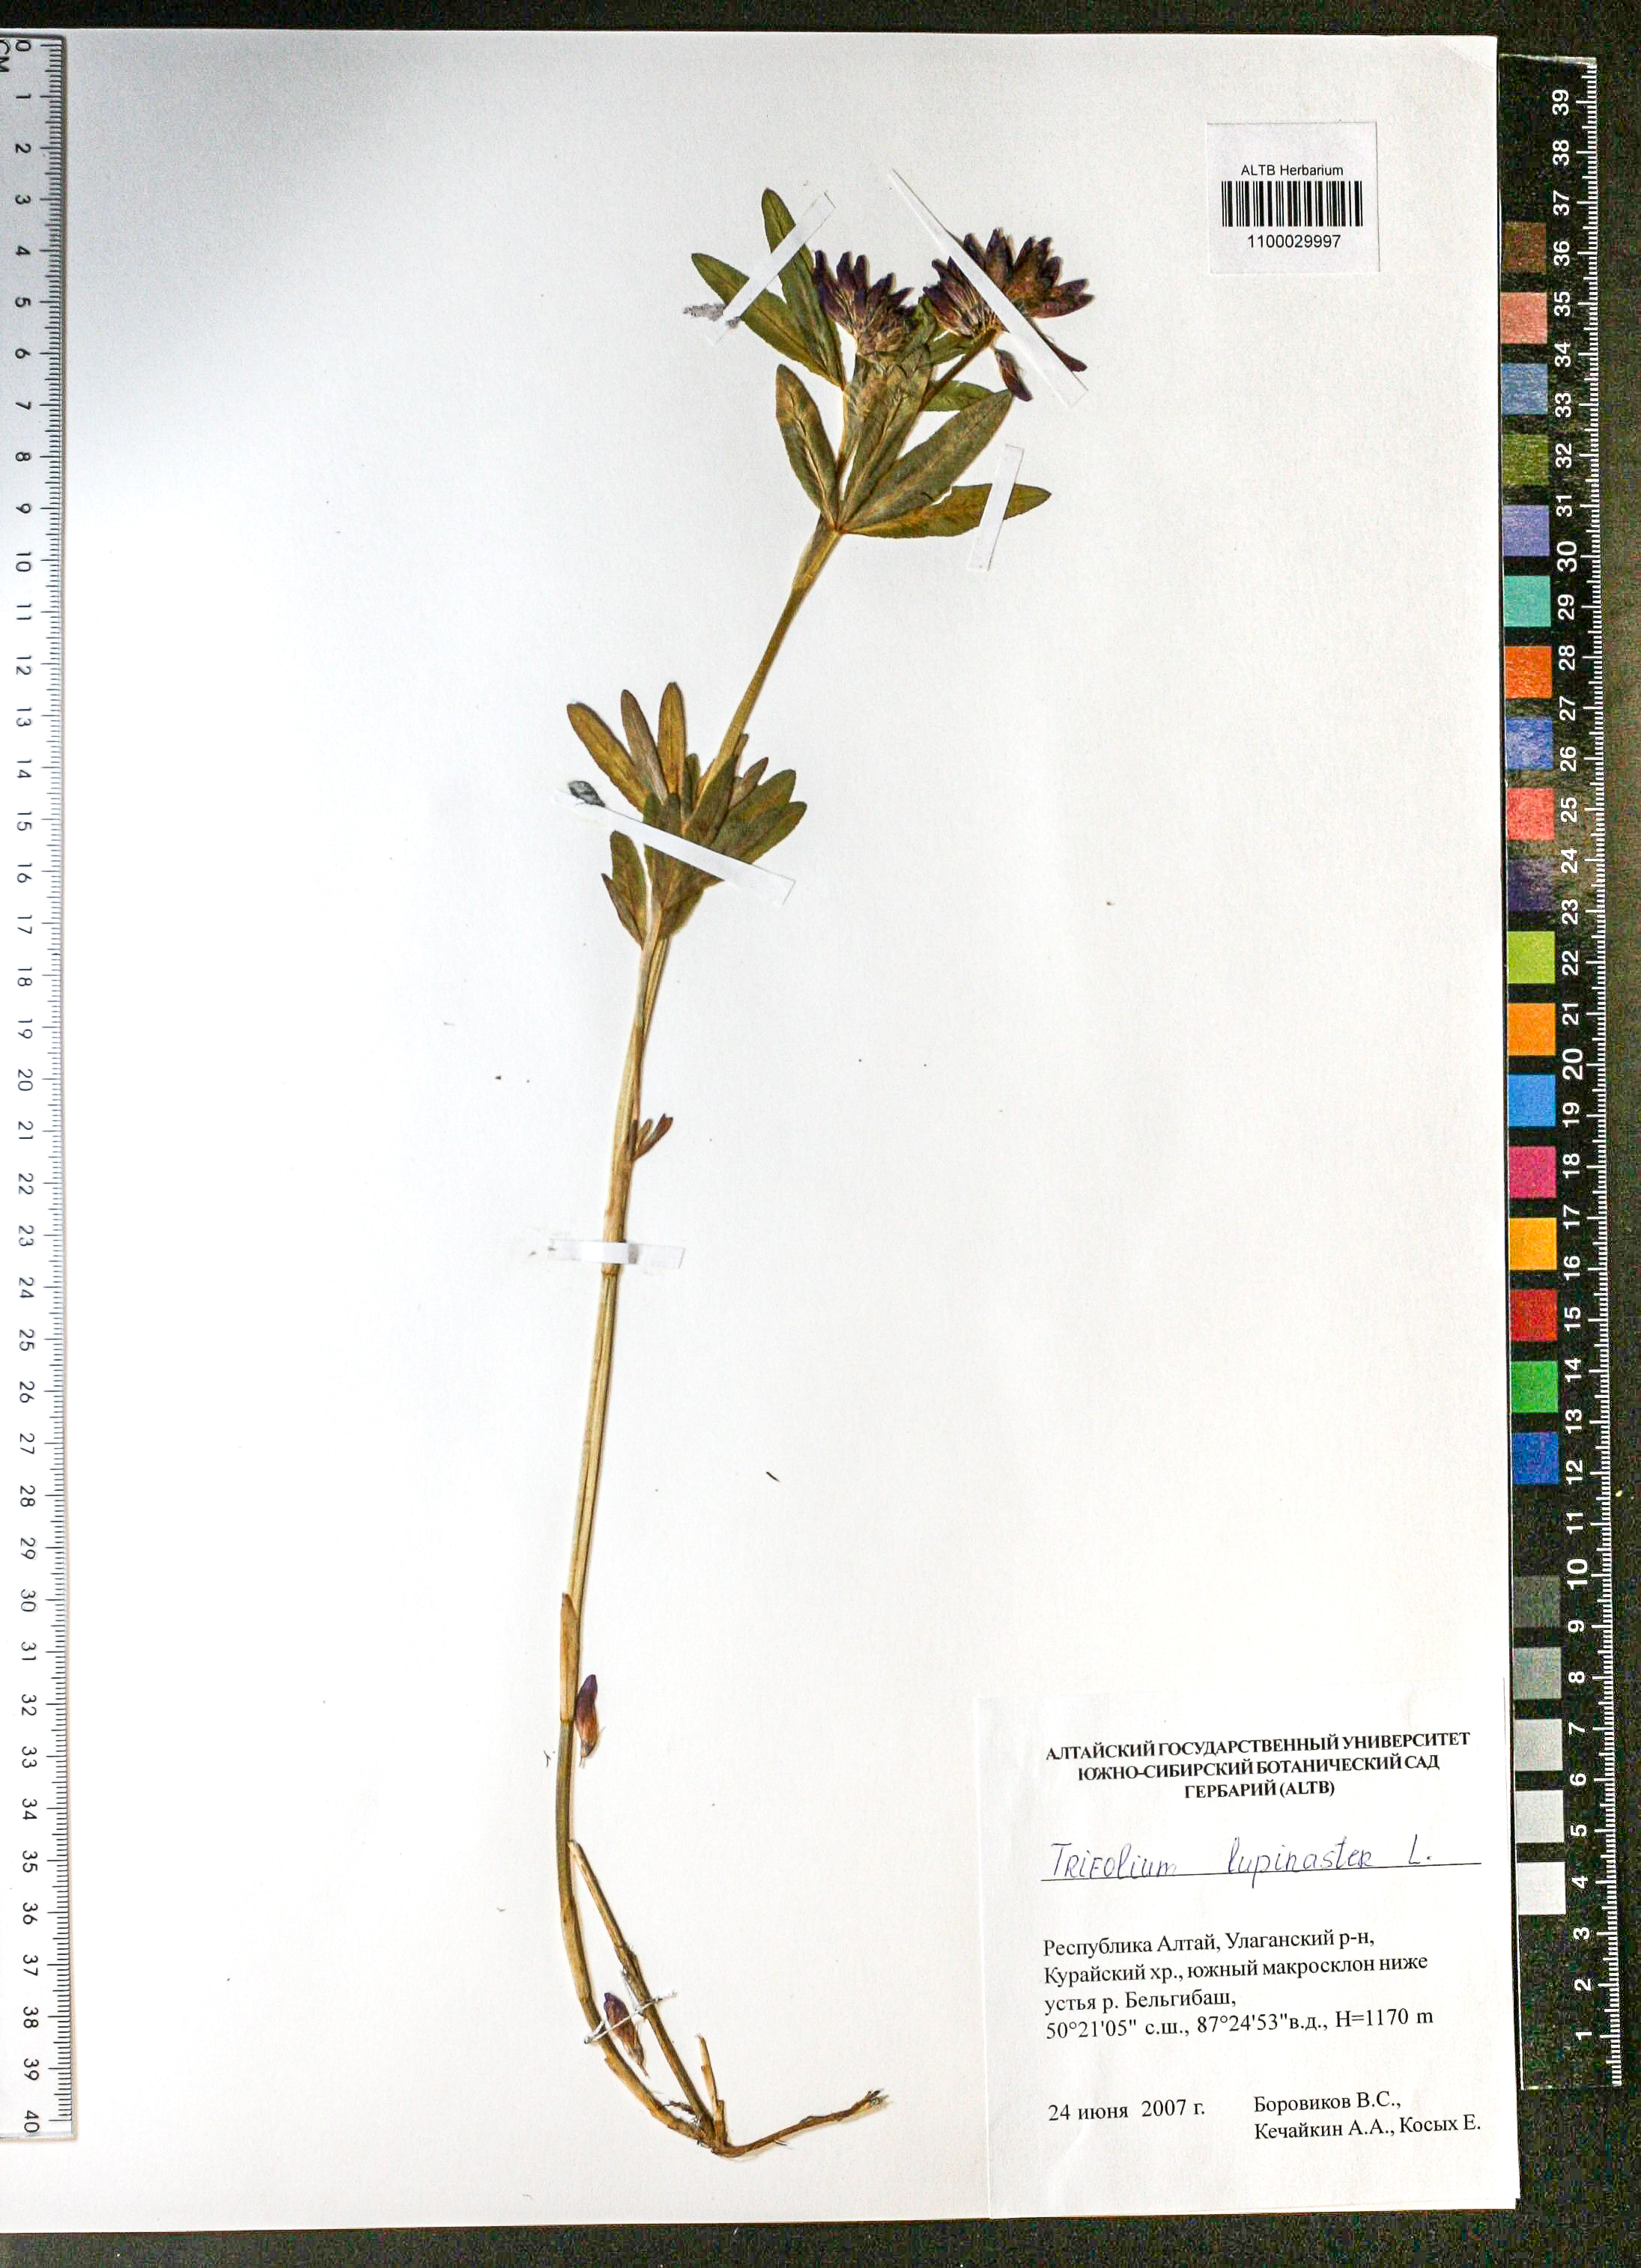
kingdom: Plantae
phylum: Tracheophyta
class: Magnoliopsida
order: Fabales
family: Fabaceae
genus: Trifolium
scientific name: Trifolium lupinaster
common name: Lupine clover
